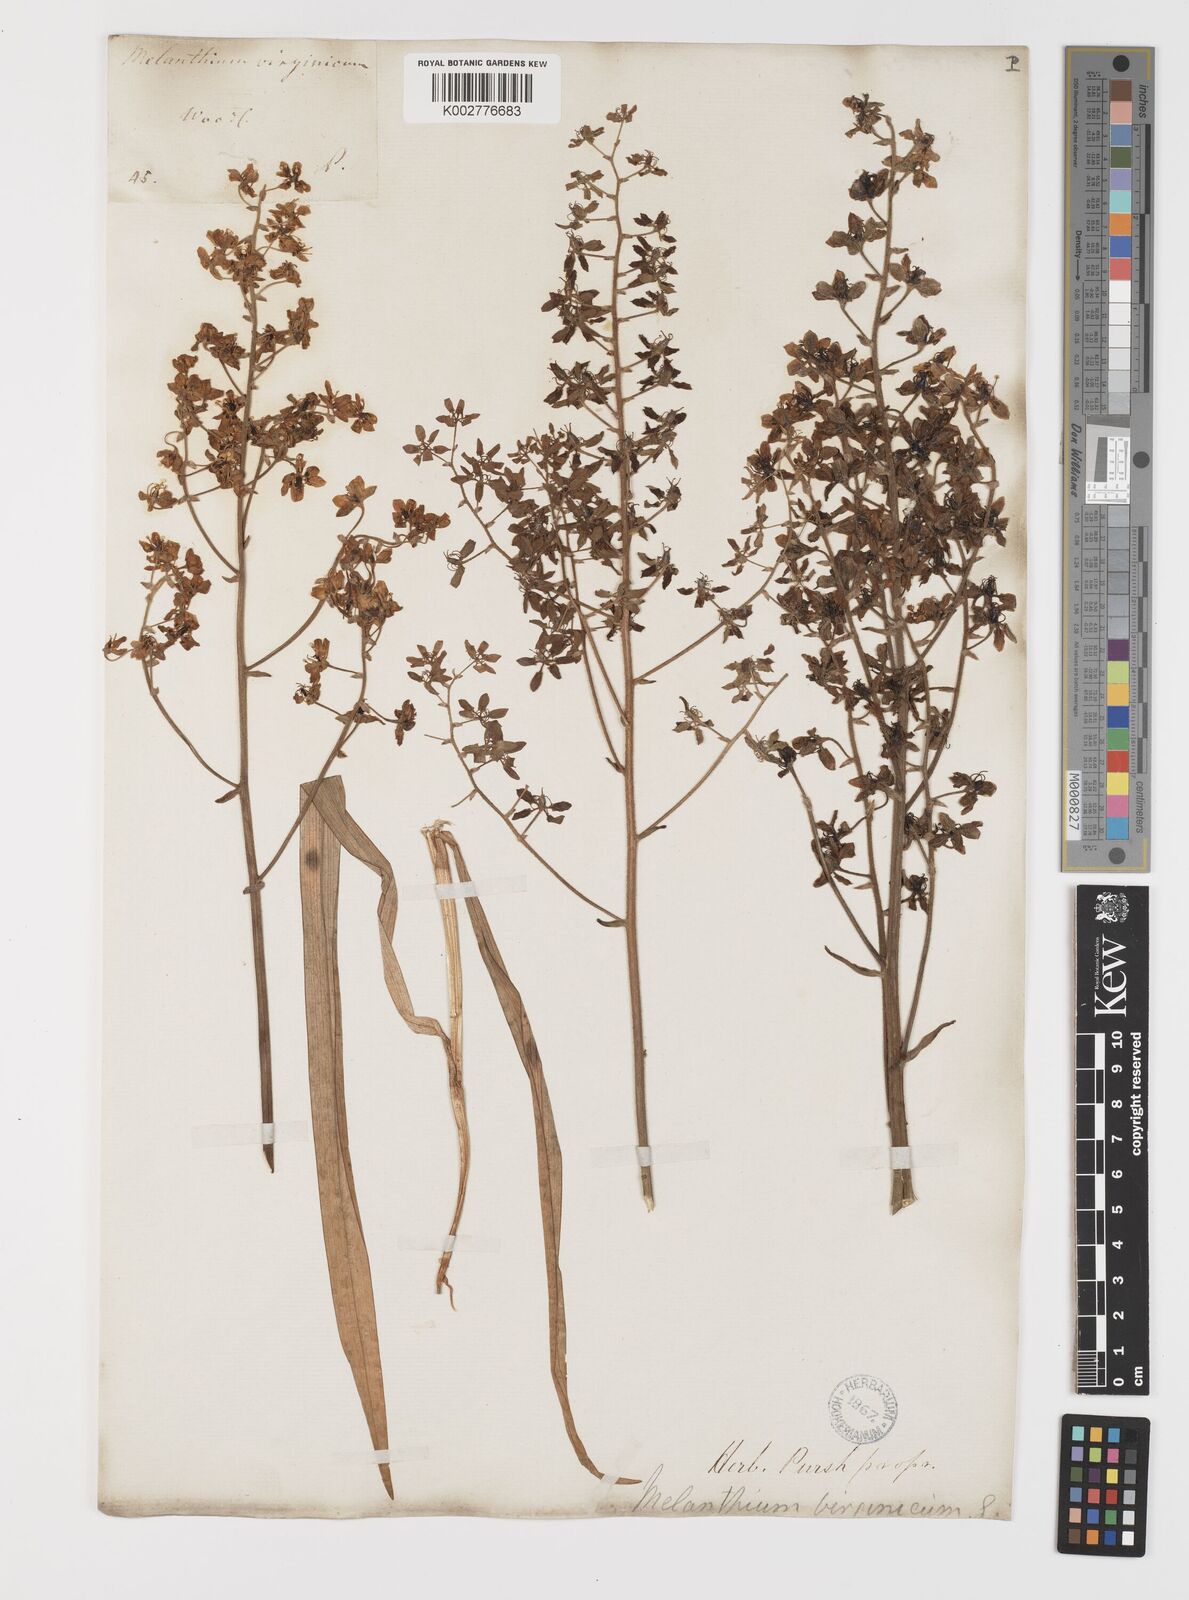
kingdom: Plantae
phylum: Tracheophyta
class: Liliopsida
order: Liliales
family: Melanthiaceae
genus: Melanthium
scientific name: Melanthium virginicum
